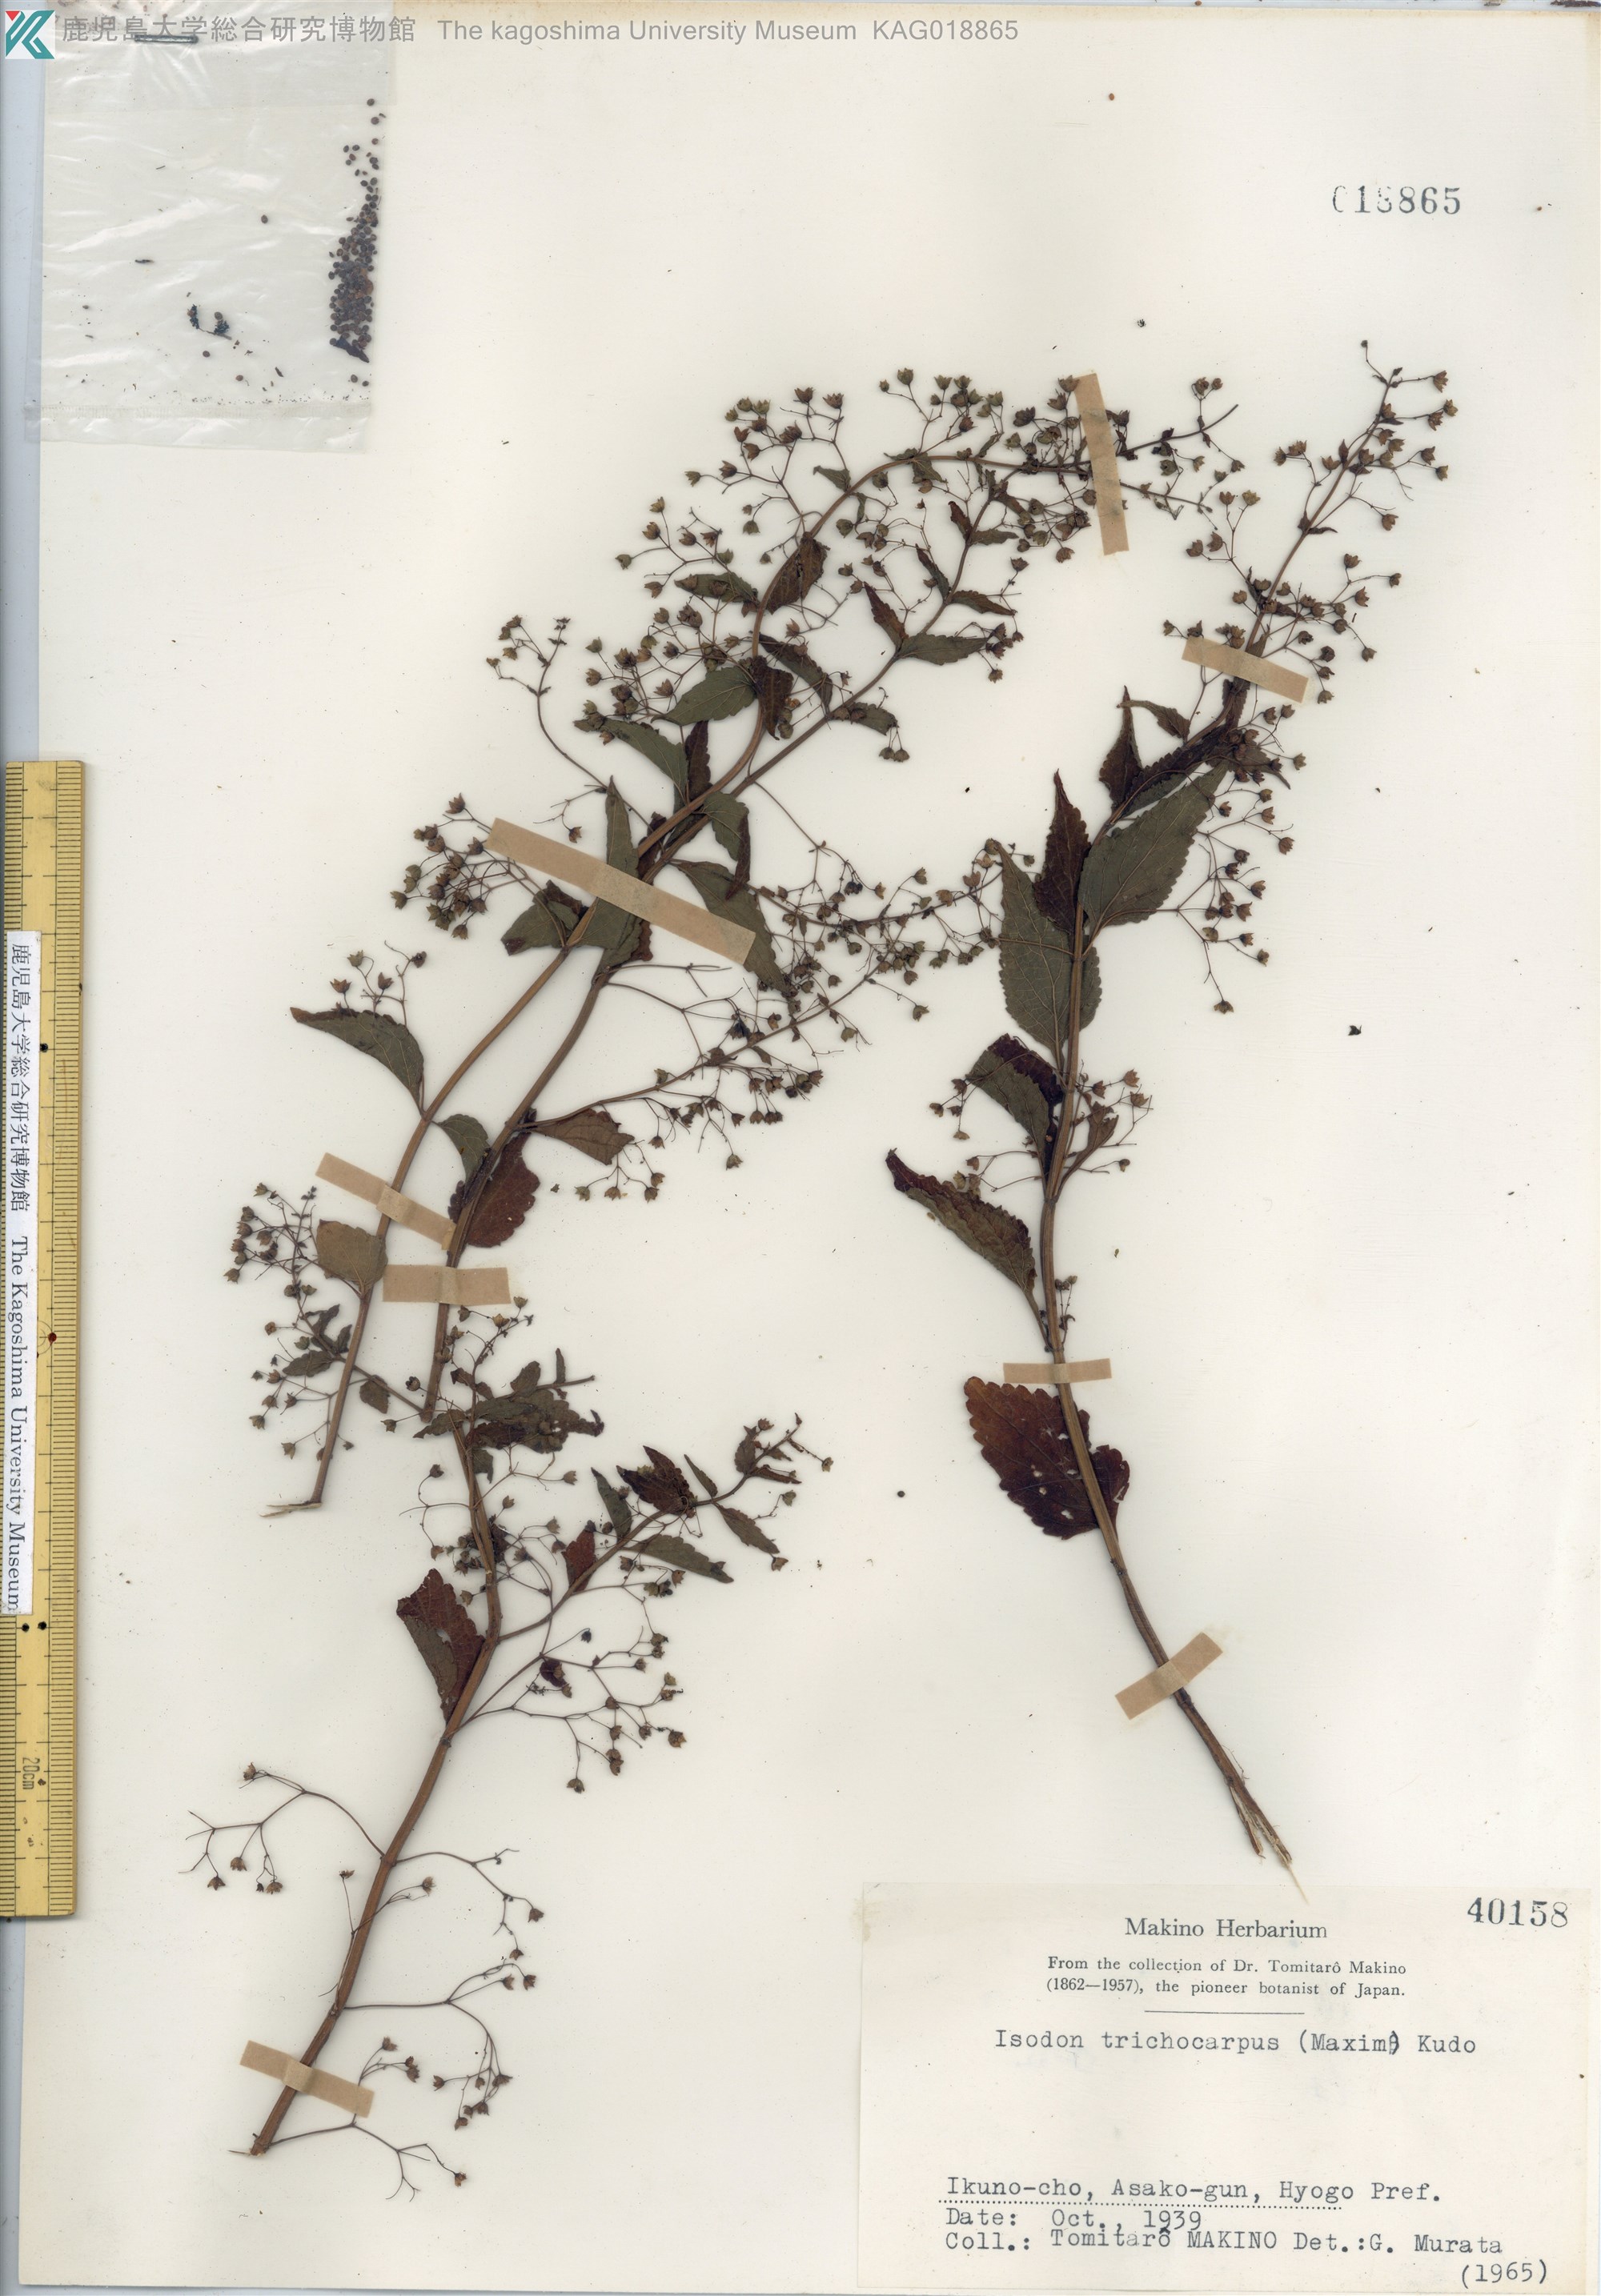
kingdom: Plantae
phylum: Tracheophyta
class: Magnoliopsida
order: Lamiales
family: Lamiaceae
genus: Isodon
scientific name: Isodon trichocarpus
